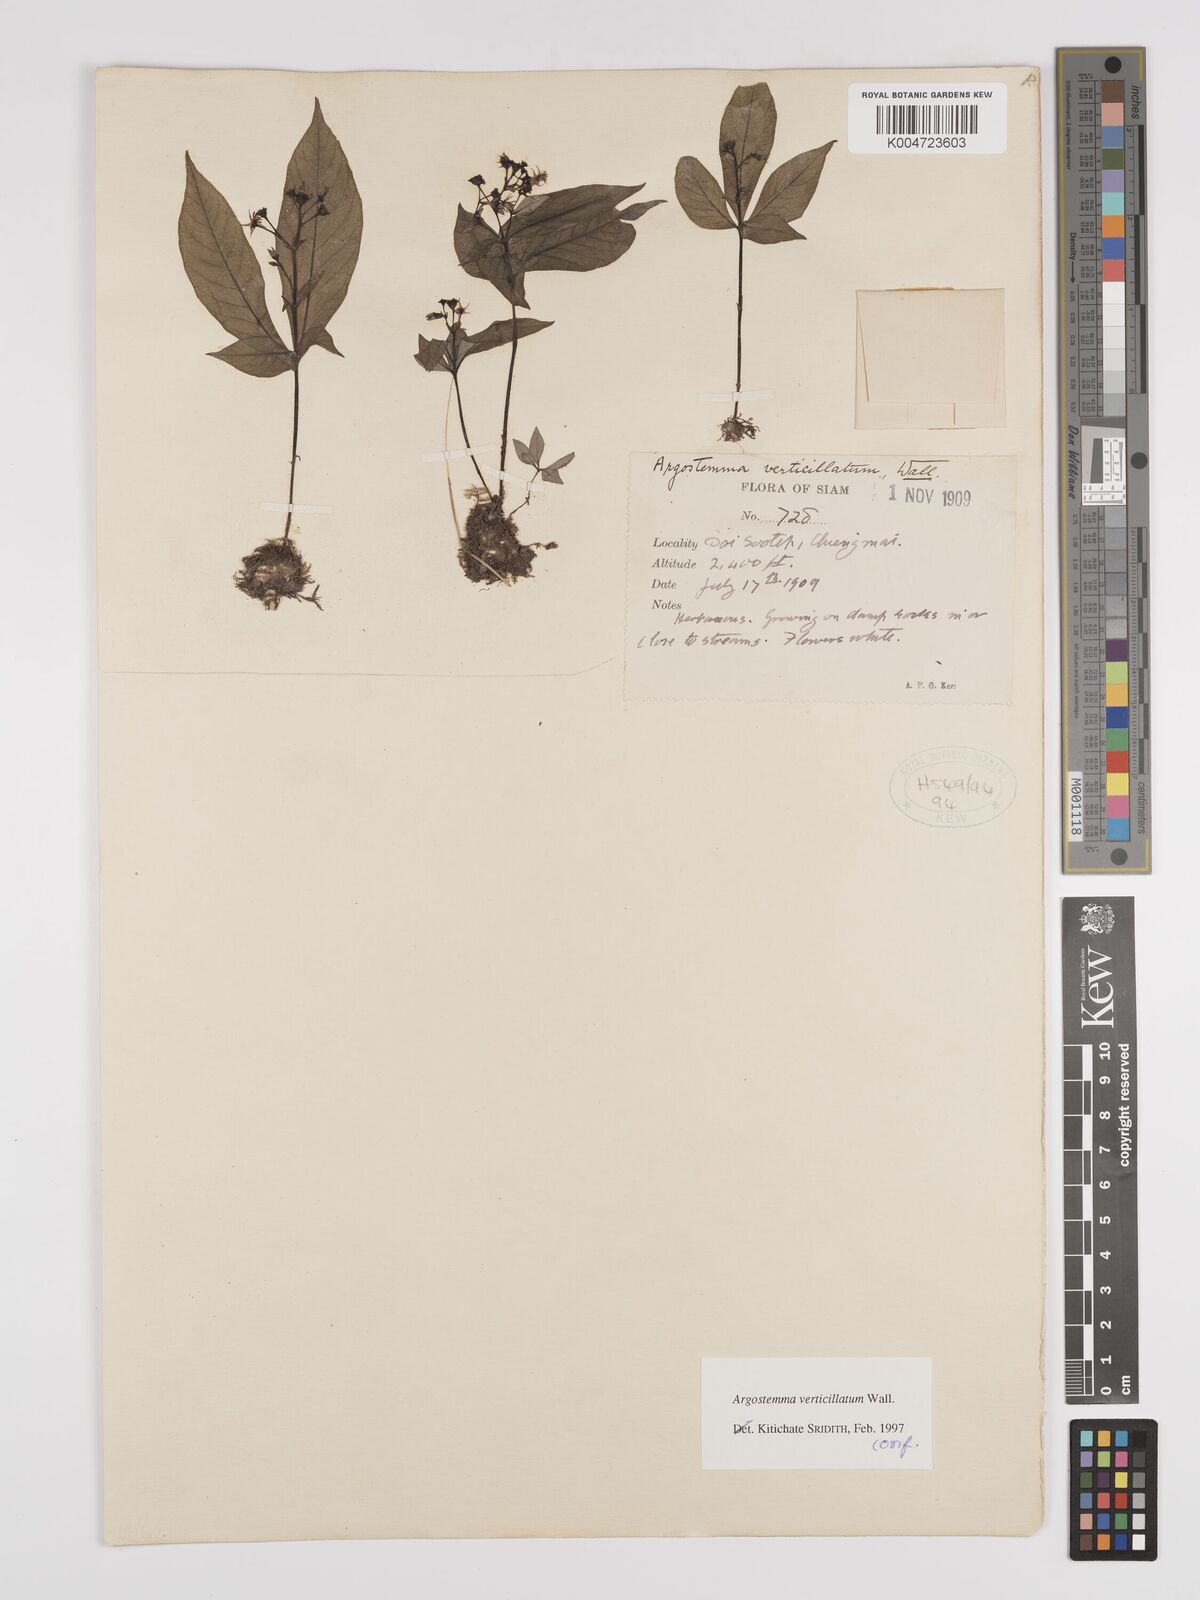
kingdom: Plantae
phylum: Tracheophyta
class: Magnoliopsida
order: Gentianales
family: Rubiaceae
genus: Argostemma
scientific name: Argostemma verticillatum
